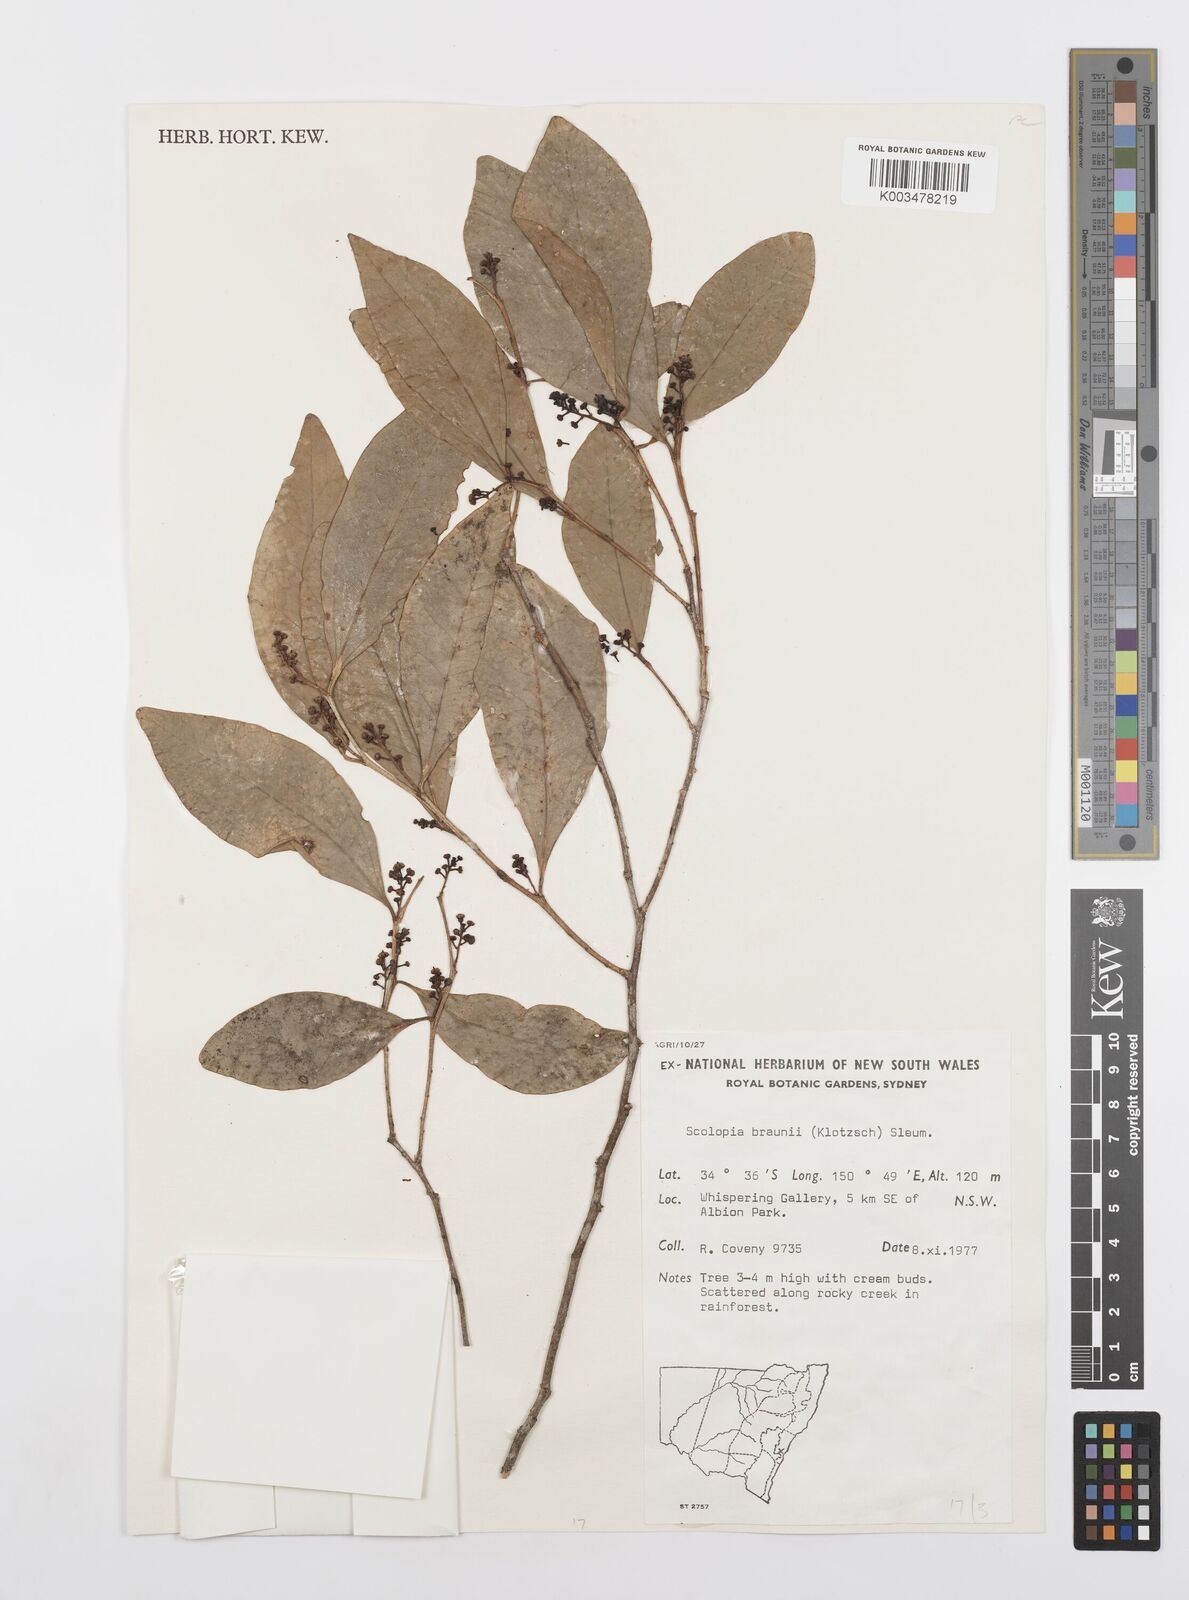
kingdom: Plantae
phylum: Tracheophyta
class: Magnoliopsida
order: Malpighiales
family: Salicaceae
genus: Scolopia
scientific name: Scolopia braunii
